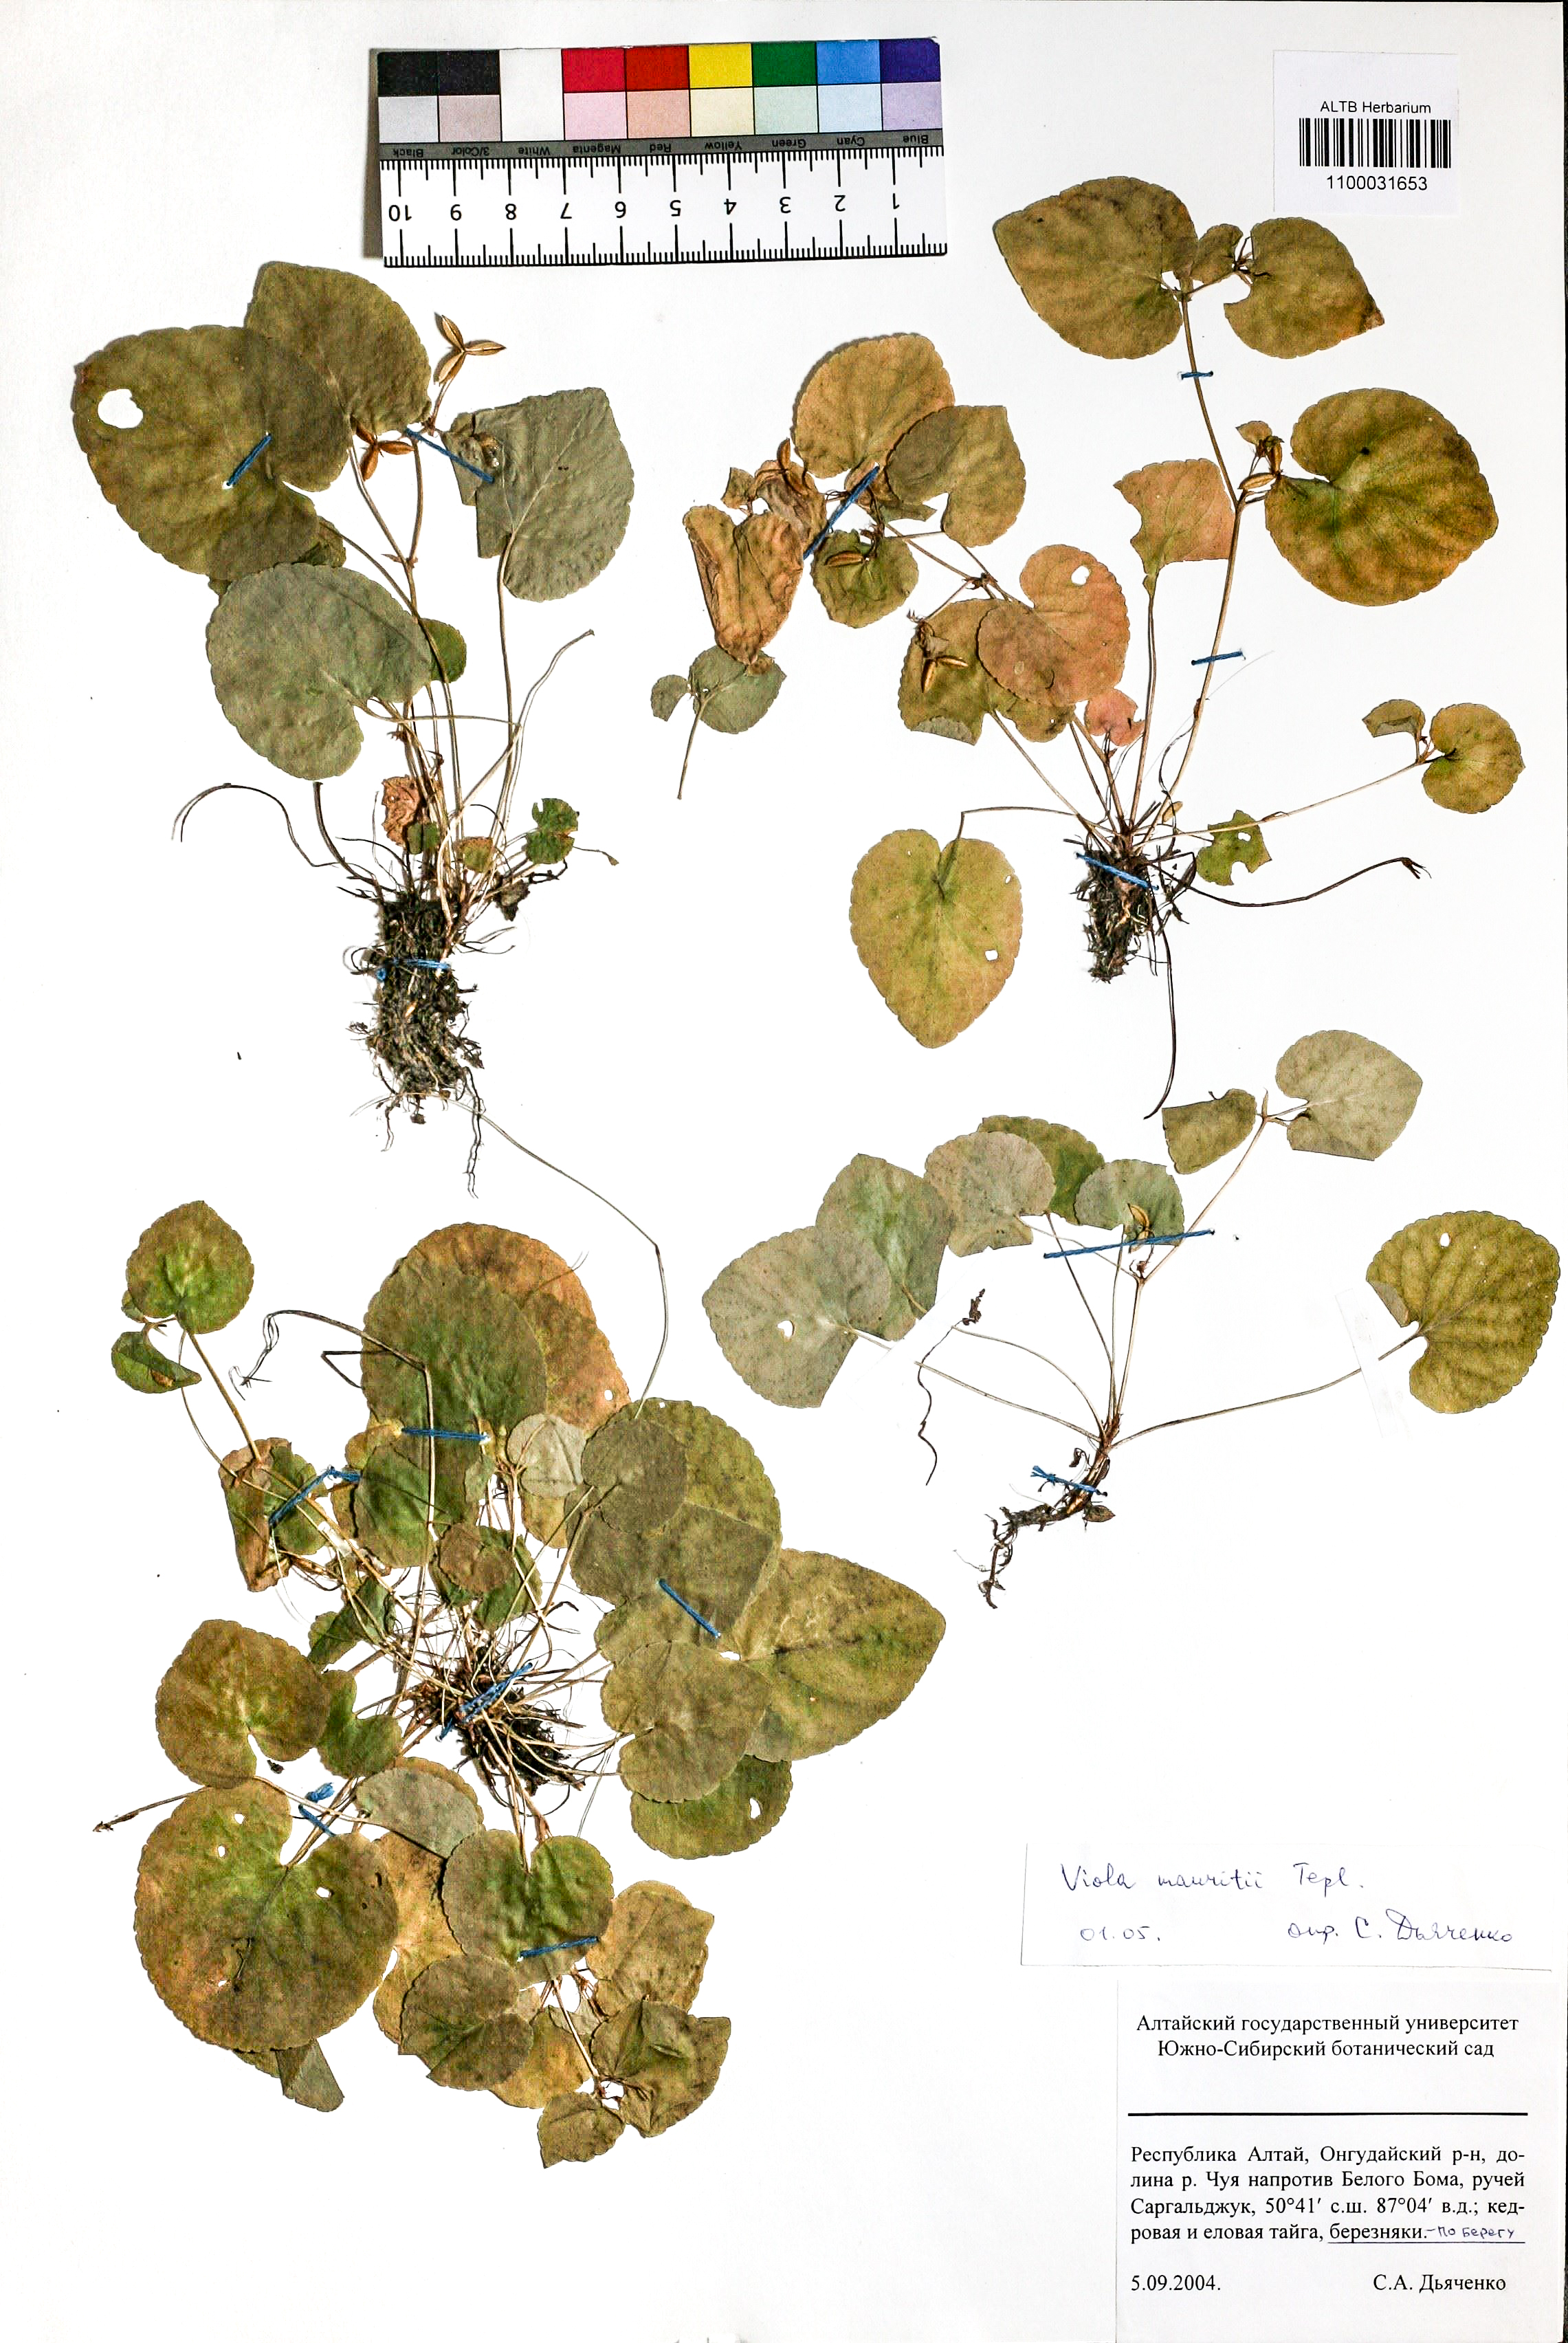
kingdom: Plantae
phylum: Tracheophyta
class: Magnoliopsida
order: Malpighiales
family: Violaceae
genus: Viola
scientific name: Viola mauritii
